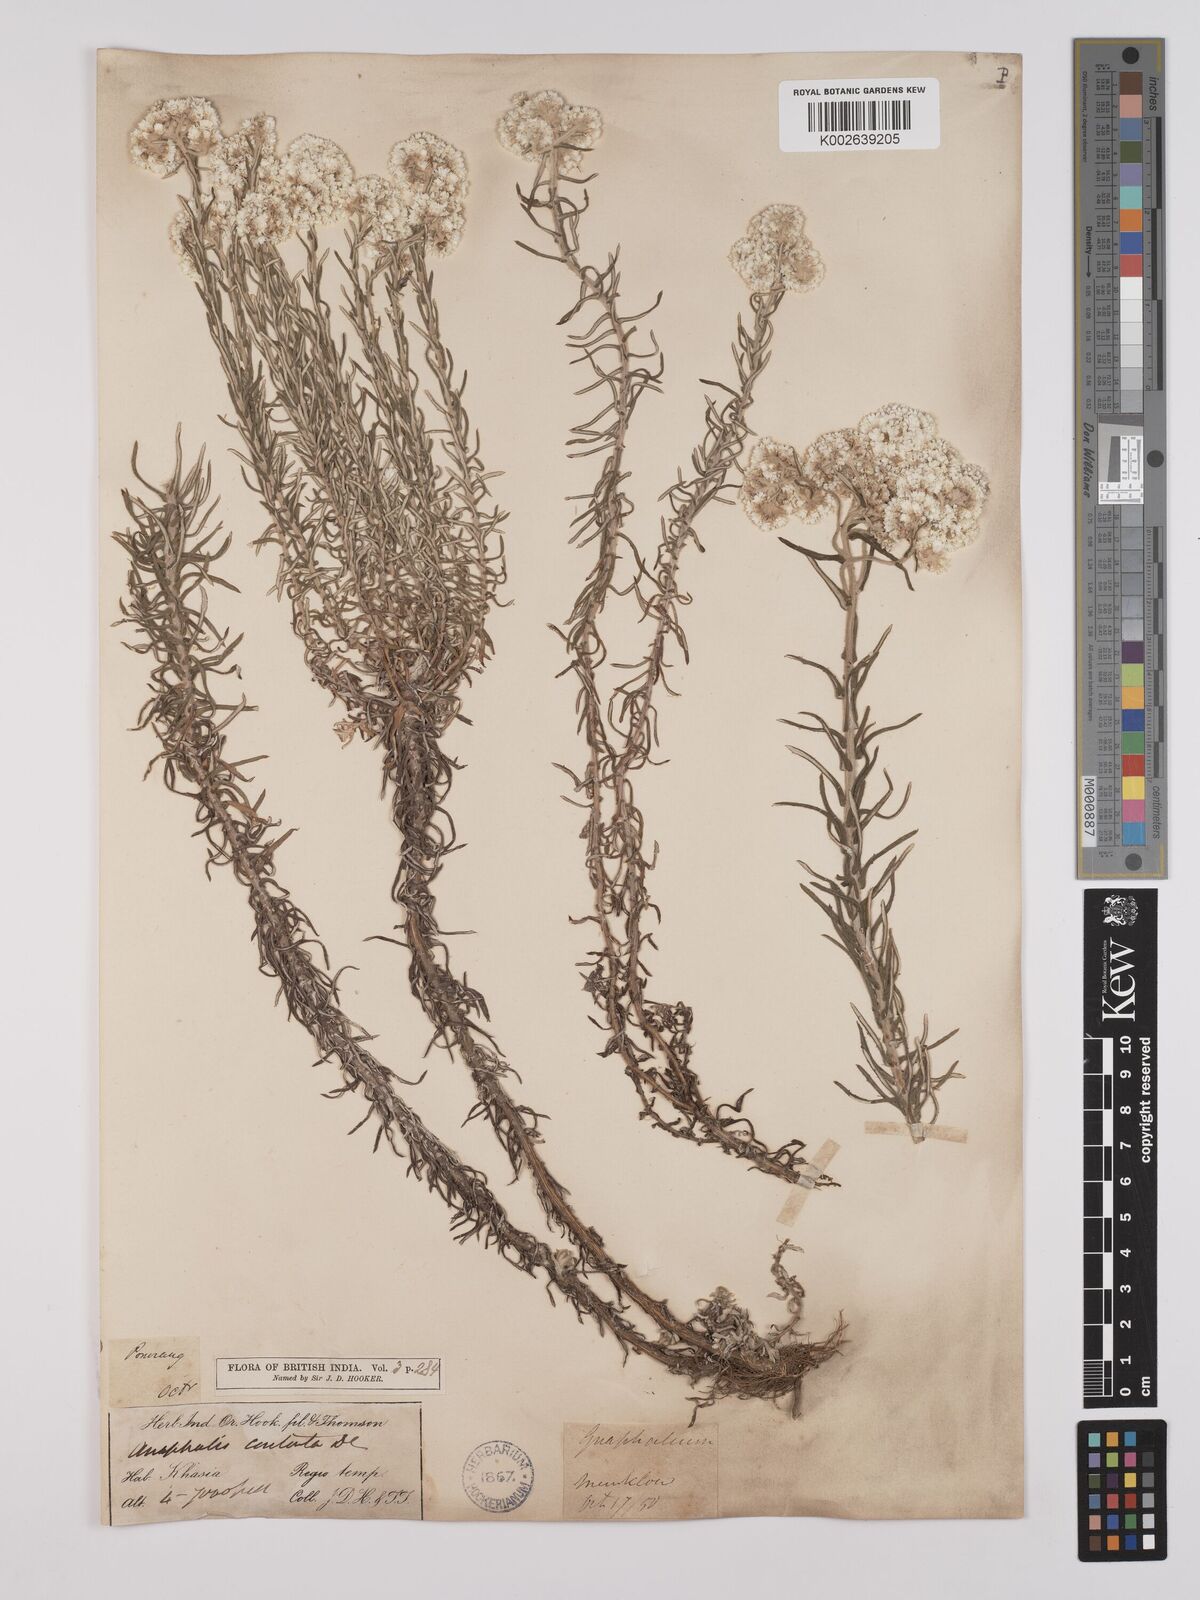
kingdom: Plantae
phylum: Tracheophyta
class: Magnoliopsida
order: Asterales
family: Asteraceae
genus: Anaphalis
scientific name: Anaphalis contorta
